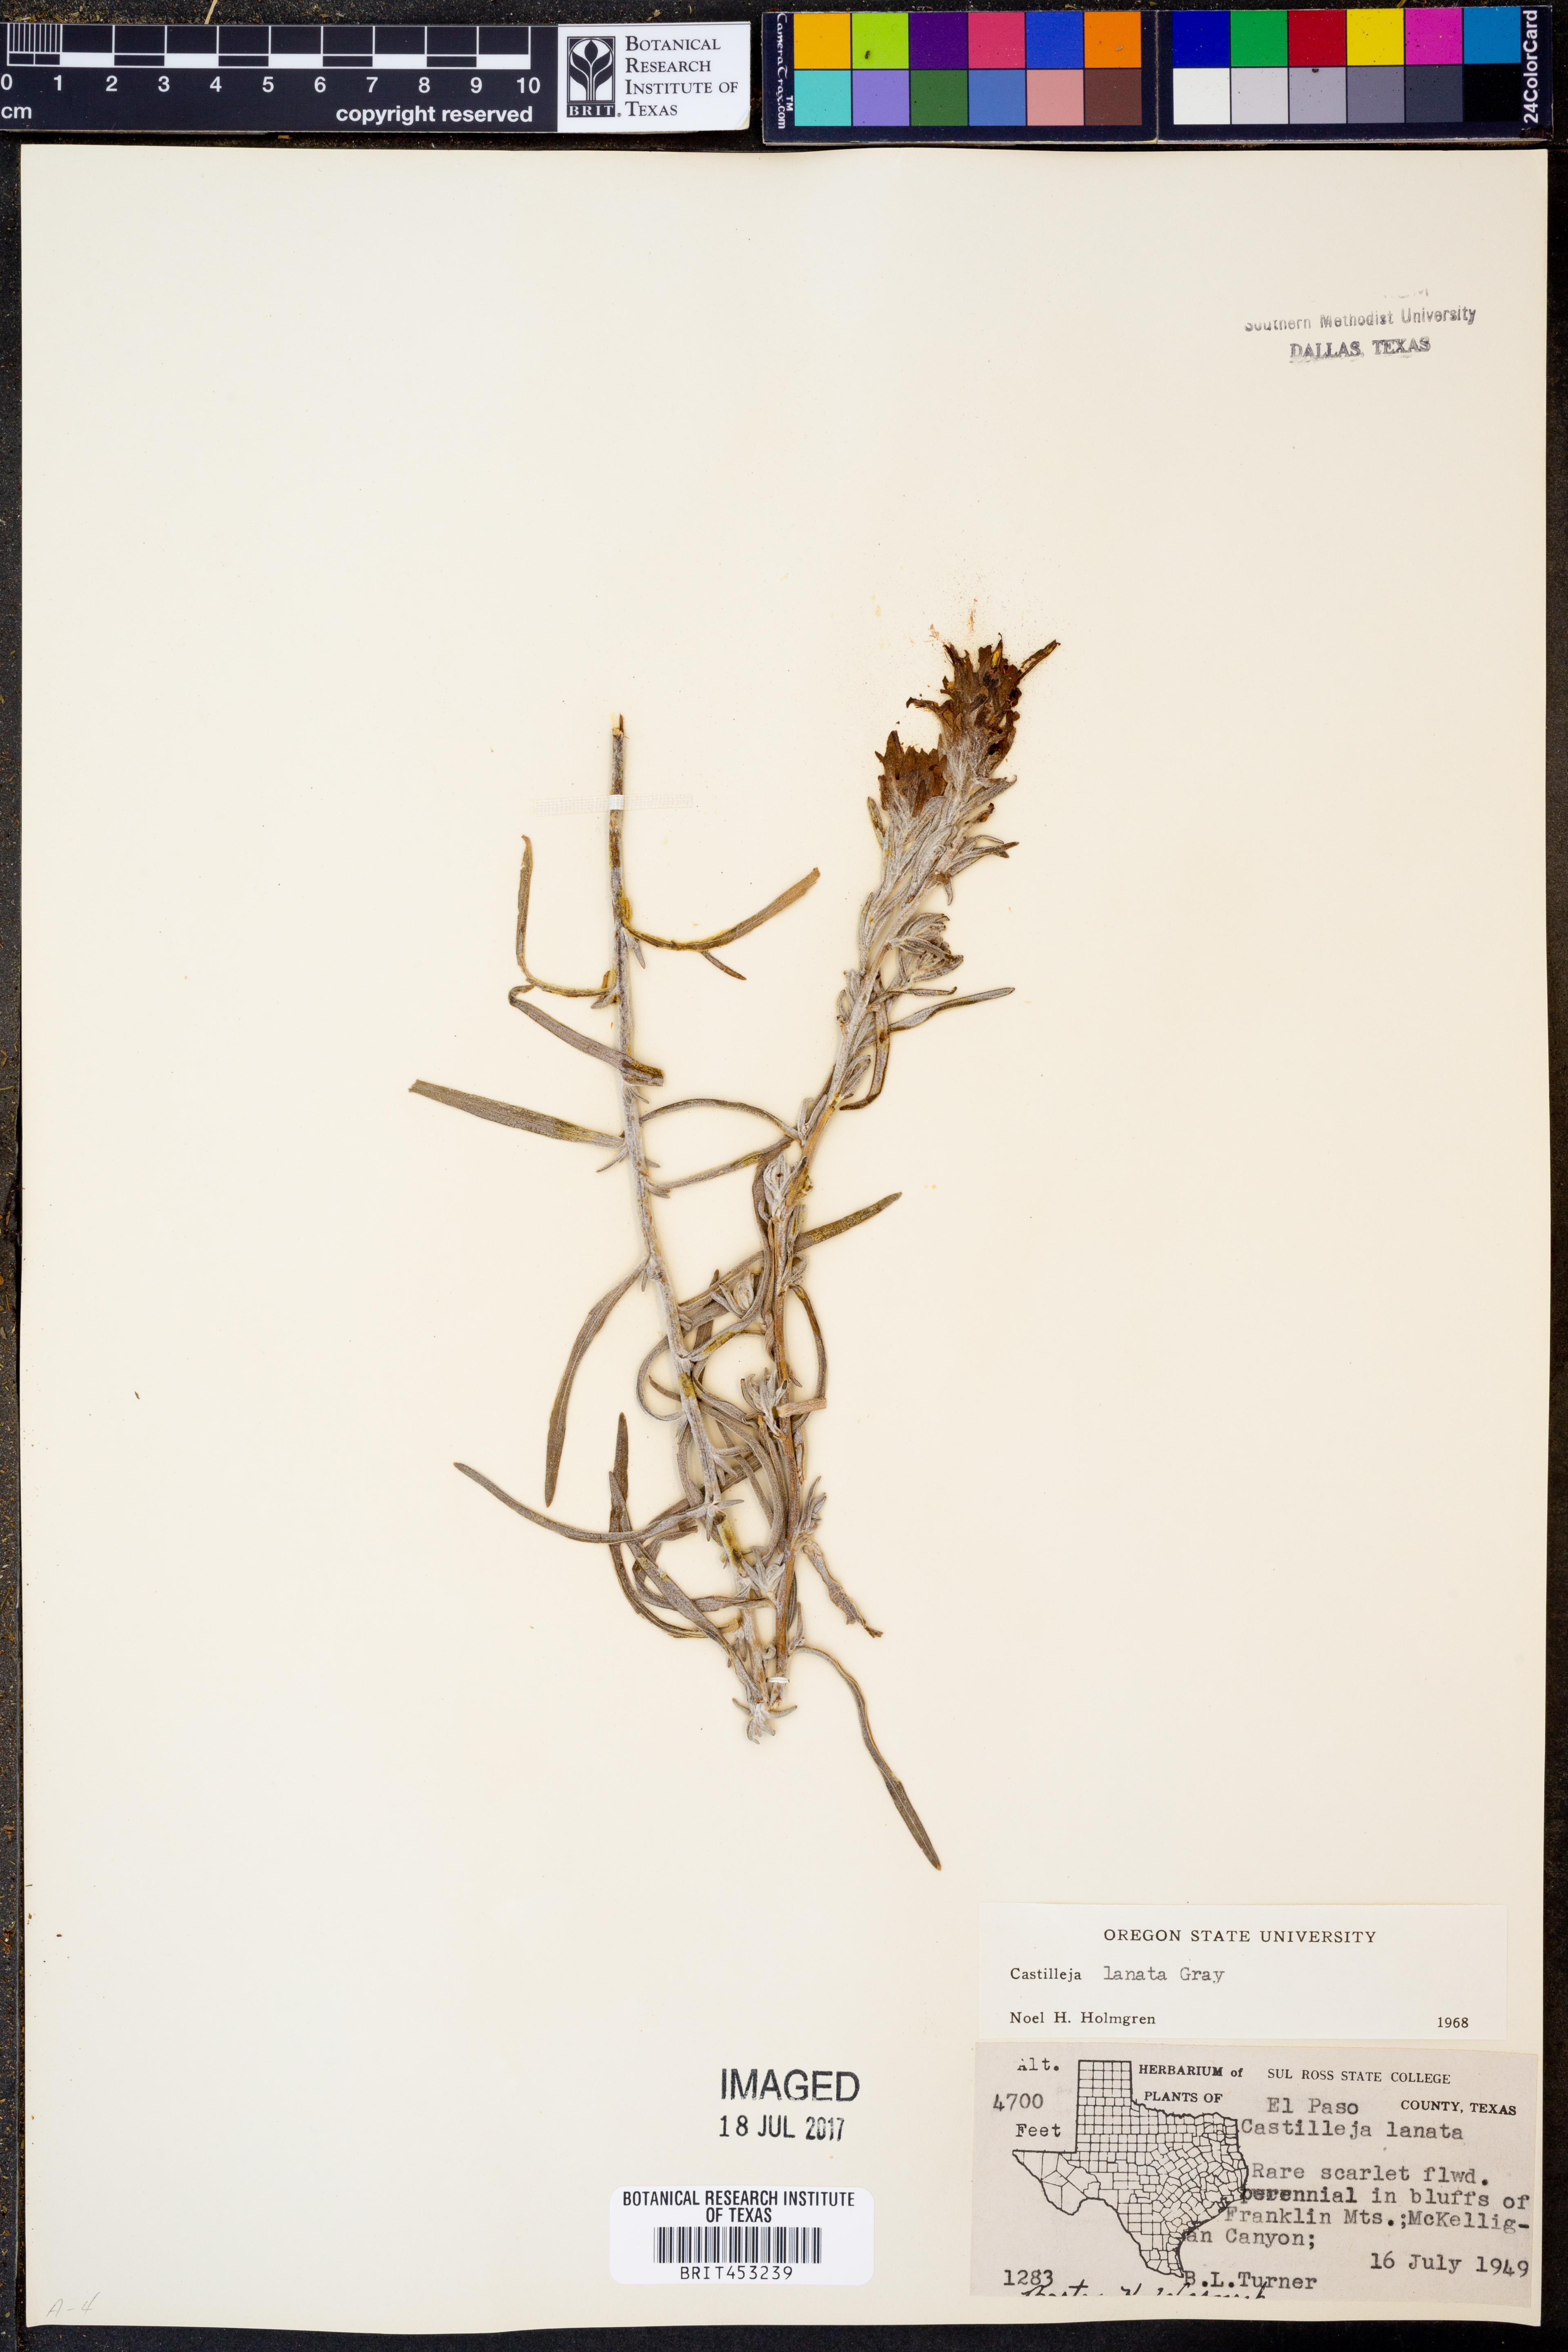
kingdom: Plantae
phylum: Tracheophyta
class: Magnoliopsida
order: Lamiales
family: Orobanchaceae
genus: Castilleja
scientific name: Castilleja lanata
